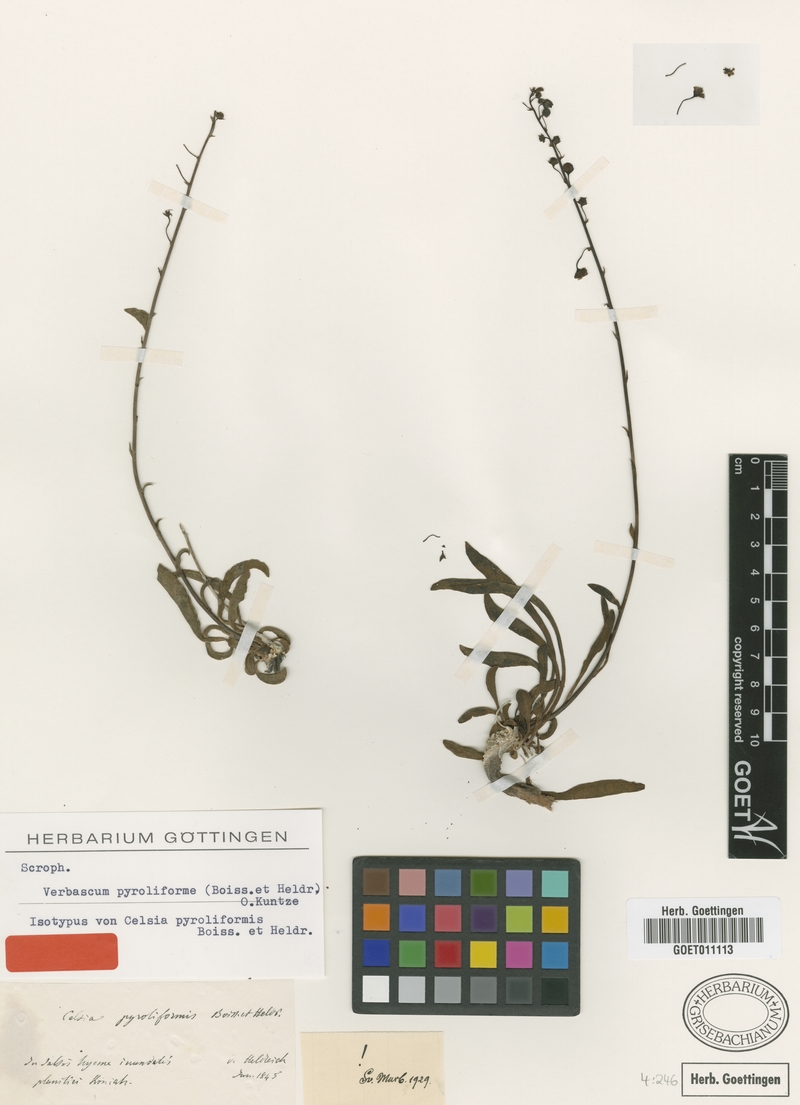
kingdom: Plantae
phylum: Tracheophyta
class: Magnoliopsida
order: Lamiales
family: Scrophulariaceae
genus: Verbascum
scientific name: Verbascum pyroliforme
